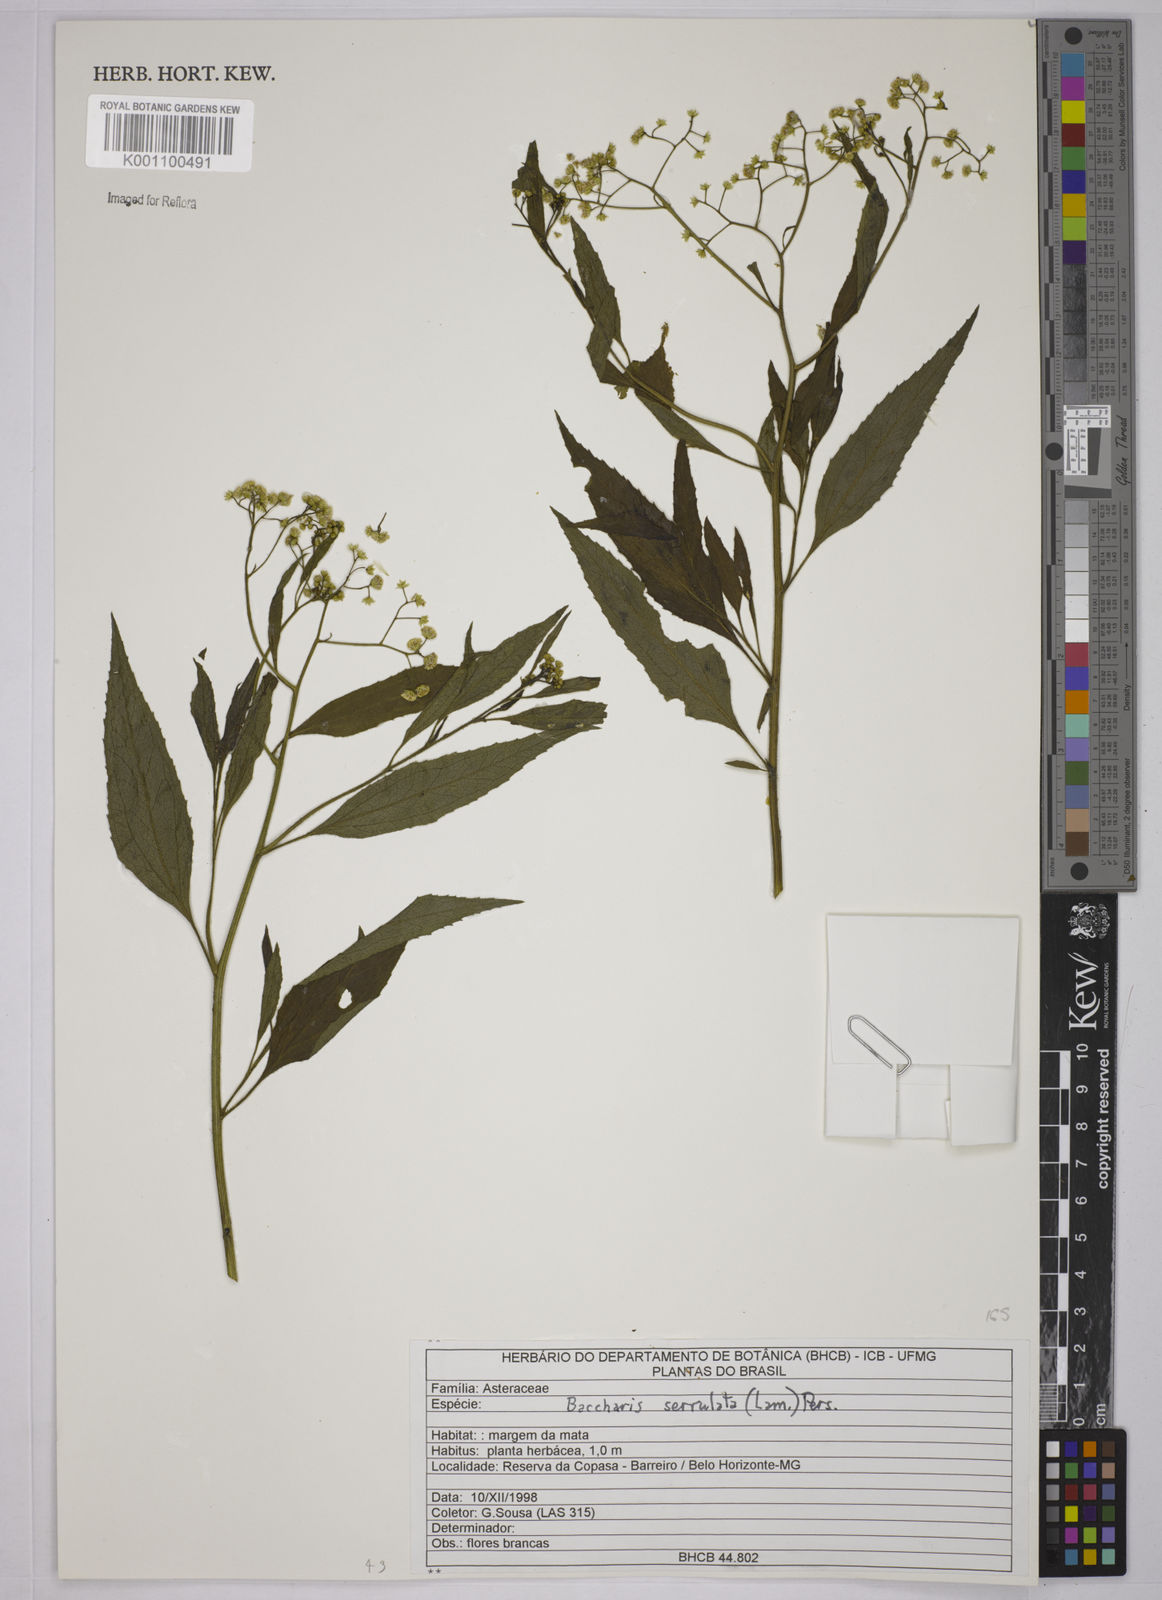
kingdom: Plantae
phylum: Tracheophyta
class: Magnoliopsida
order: Asterales
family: Asteraceae
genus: Baccharis
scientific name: Baccharis serrulata
